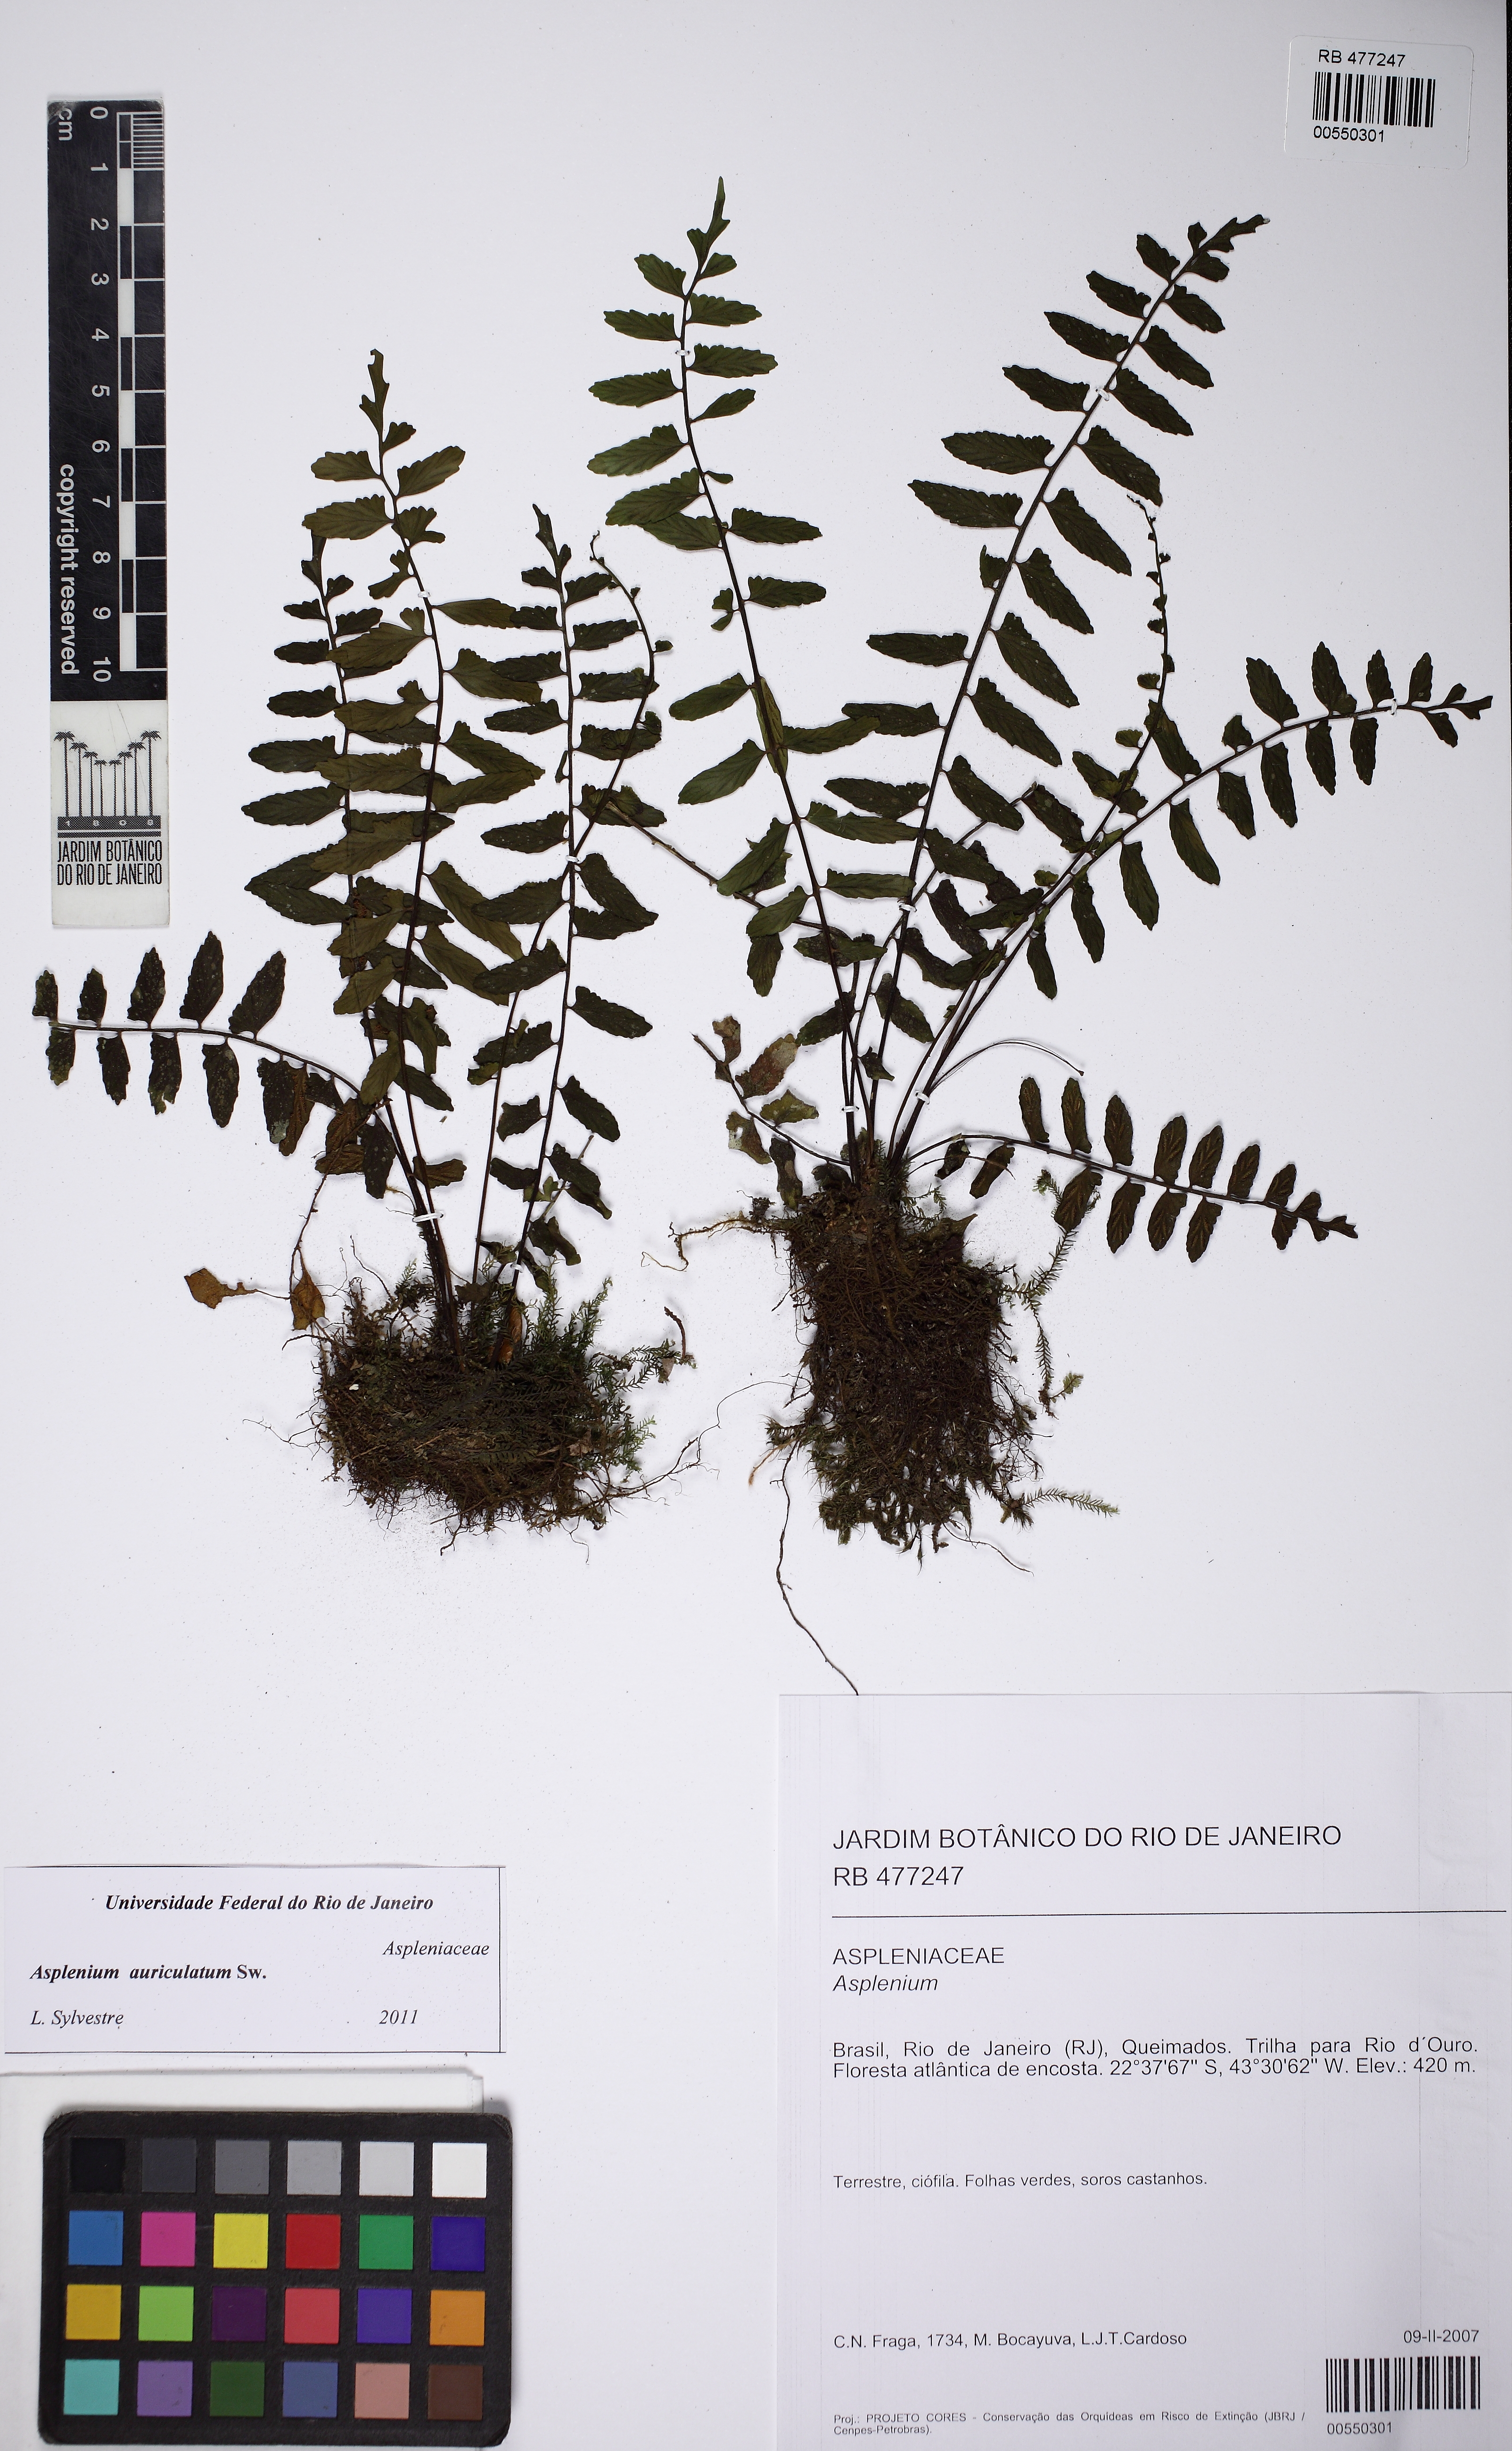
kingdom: Plantae
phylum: Tracheophyta
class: Polypodiopsida
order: Polypodiales
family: Aspleniaceae
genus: Asplenium
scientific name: Asplenium auriculatum
